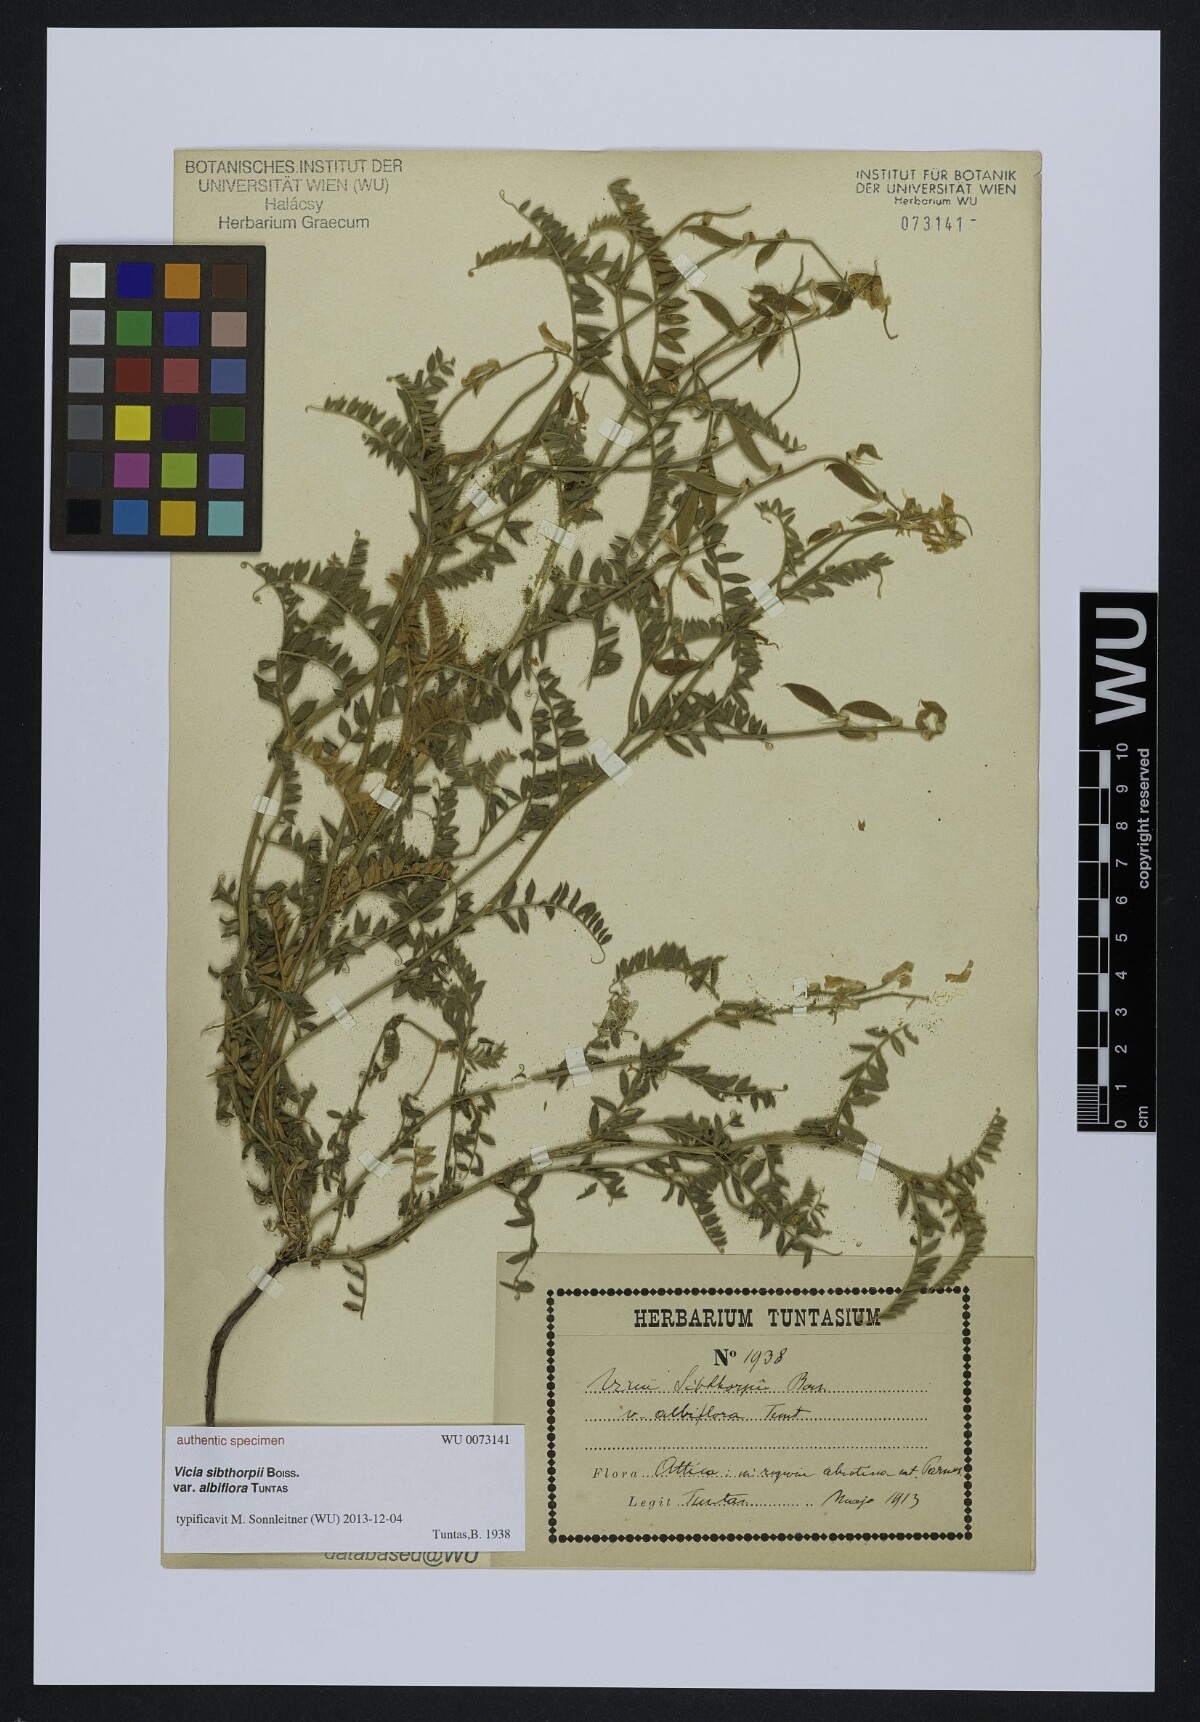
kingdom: Plantae
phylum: Tracheophyta
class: Magnoliopsida
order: Fabales
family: Fabaceae
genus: Vicia
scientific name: Vicia sibthorpii
